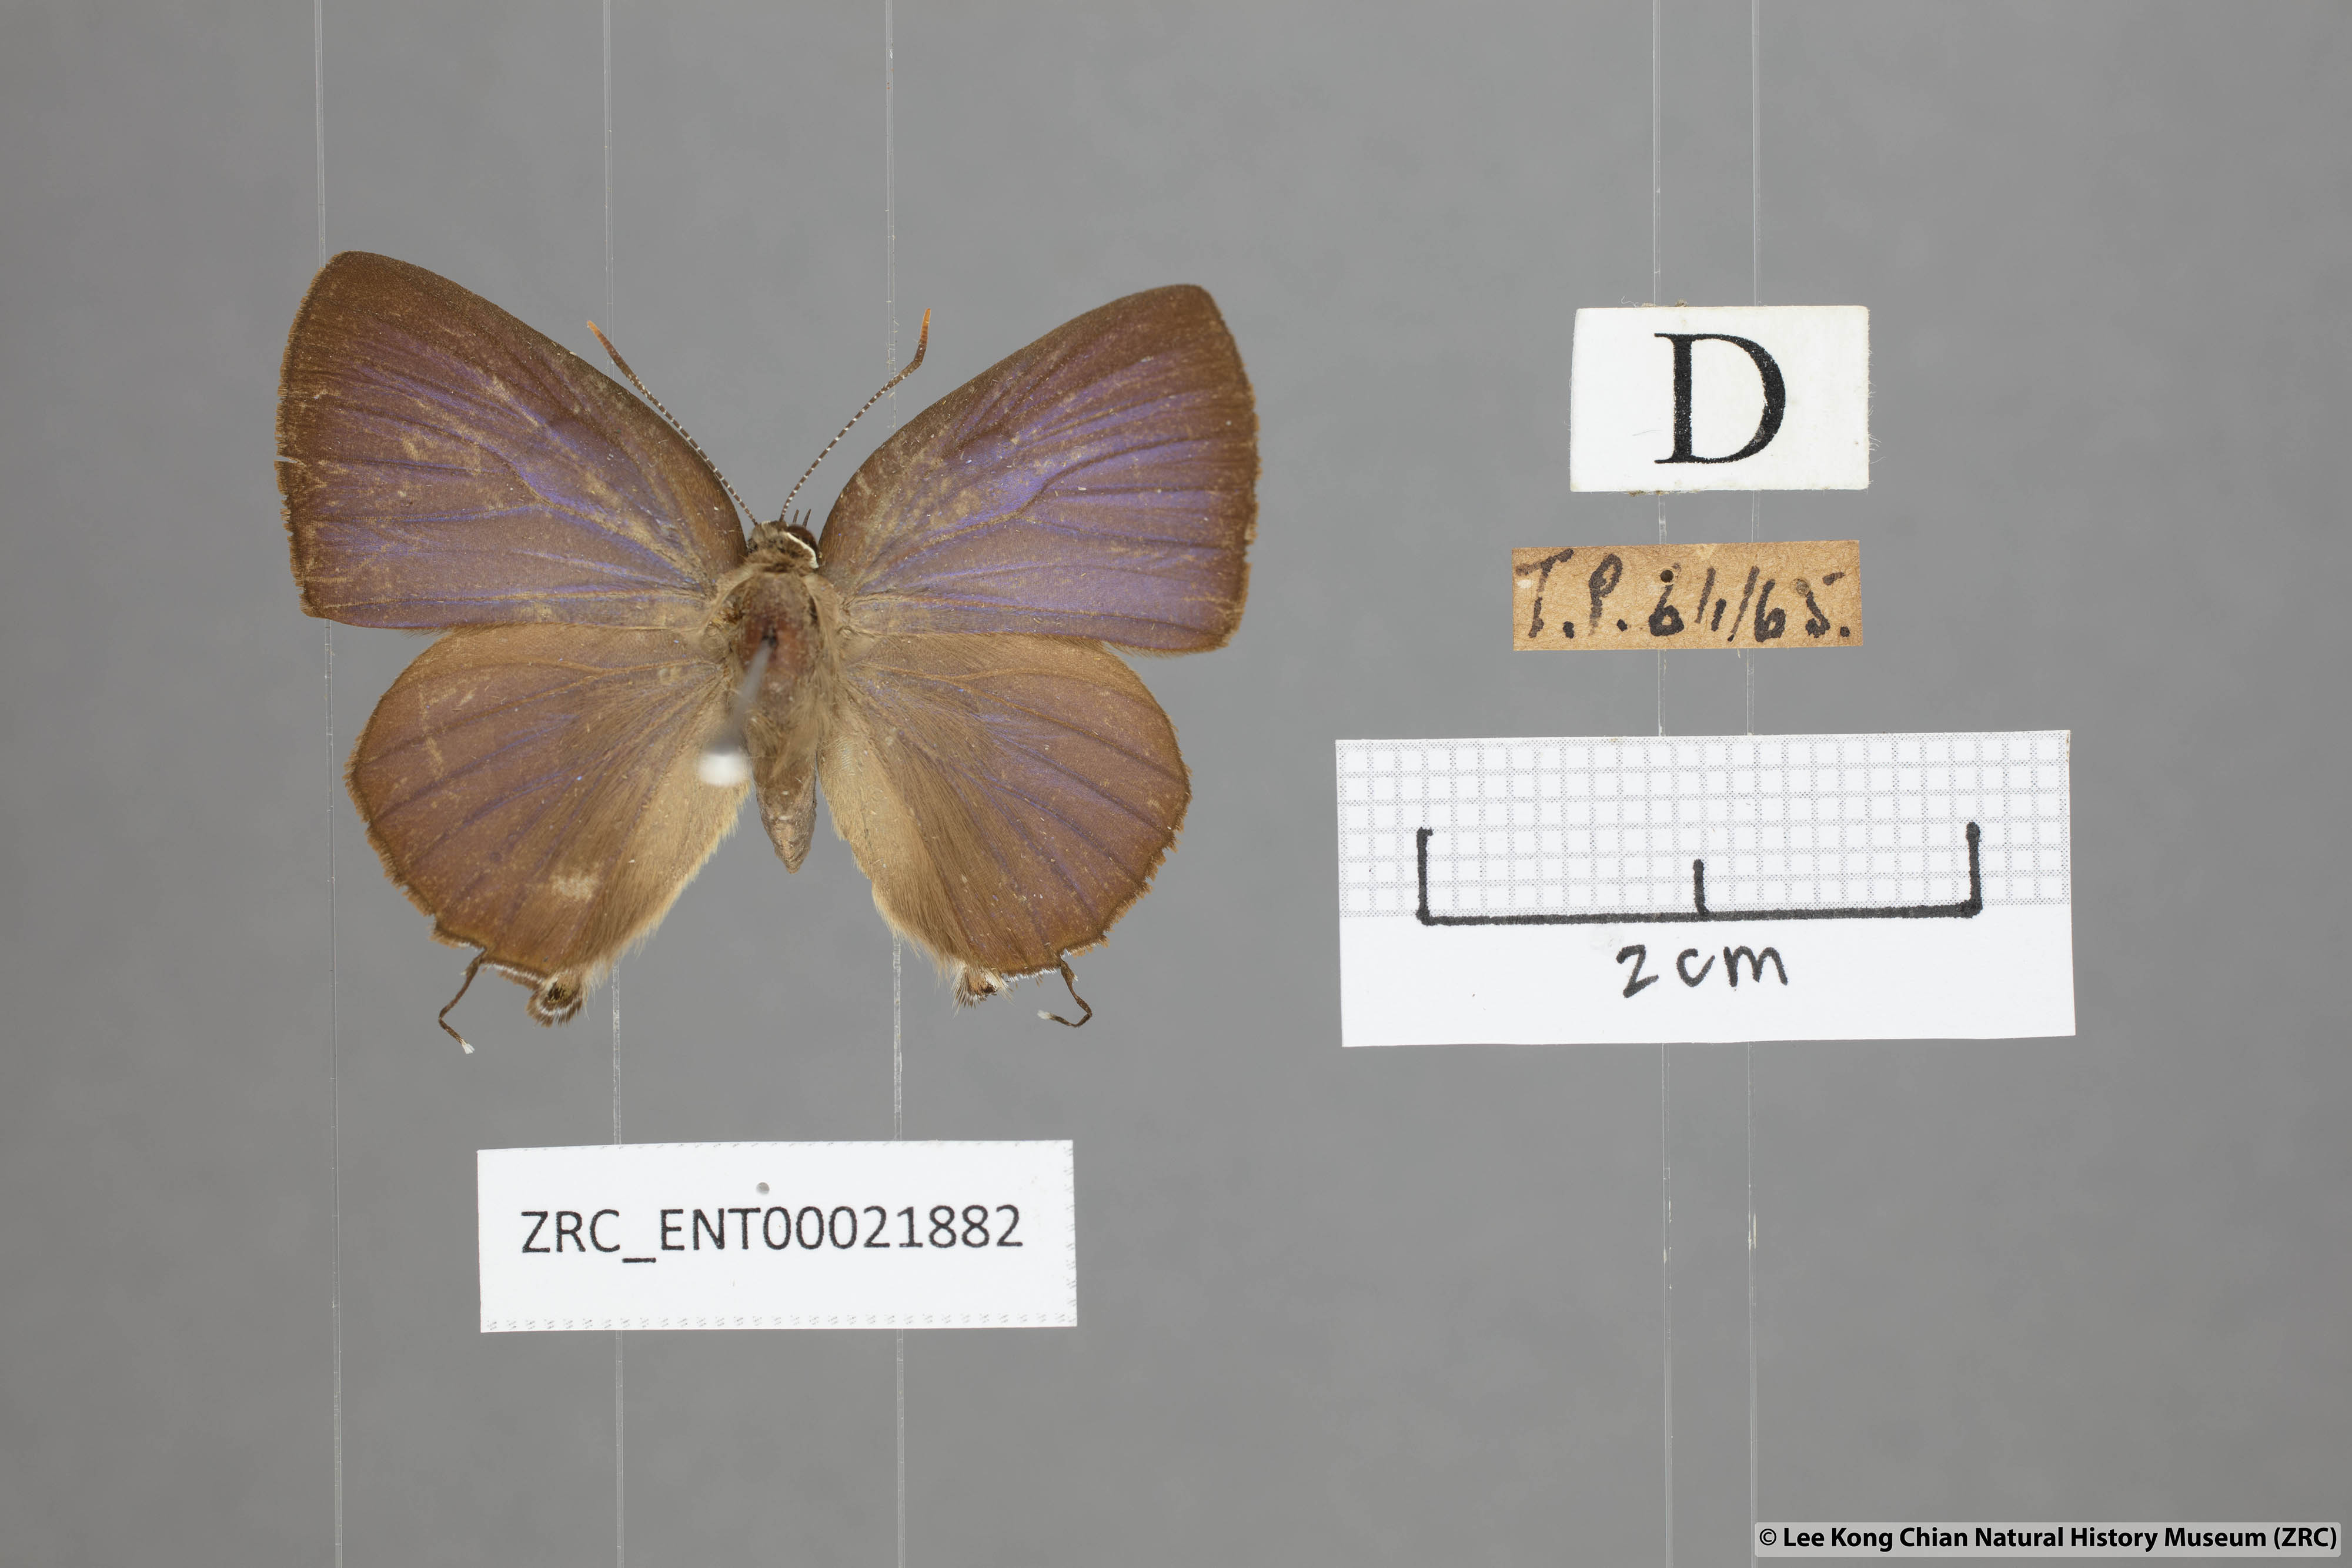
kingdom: Animalia
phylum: Arthropoda
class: Insecta
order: Lepidoptera
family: Lycaenidae
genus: Rapala
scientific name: Rapala pheretima
